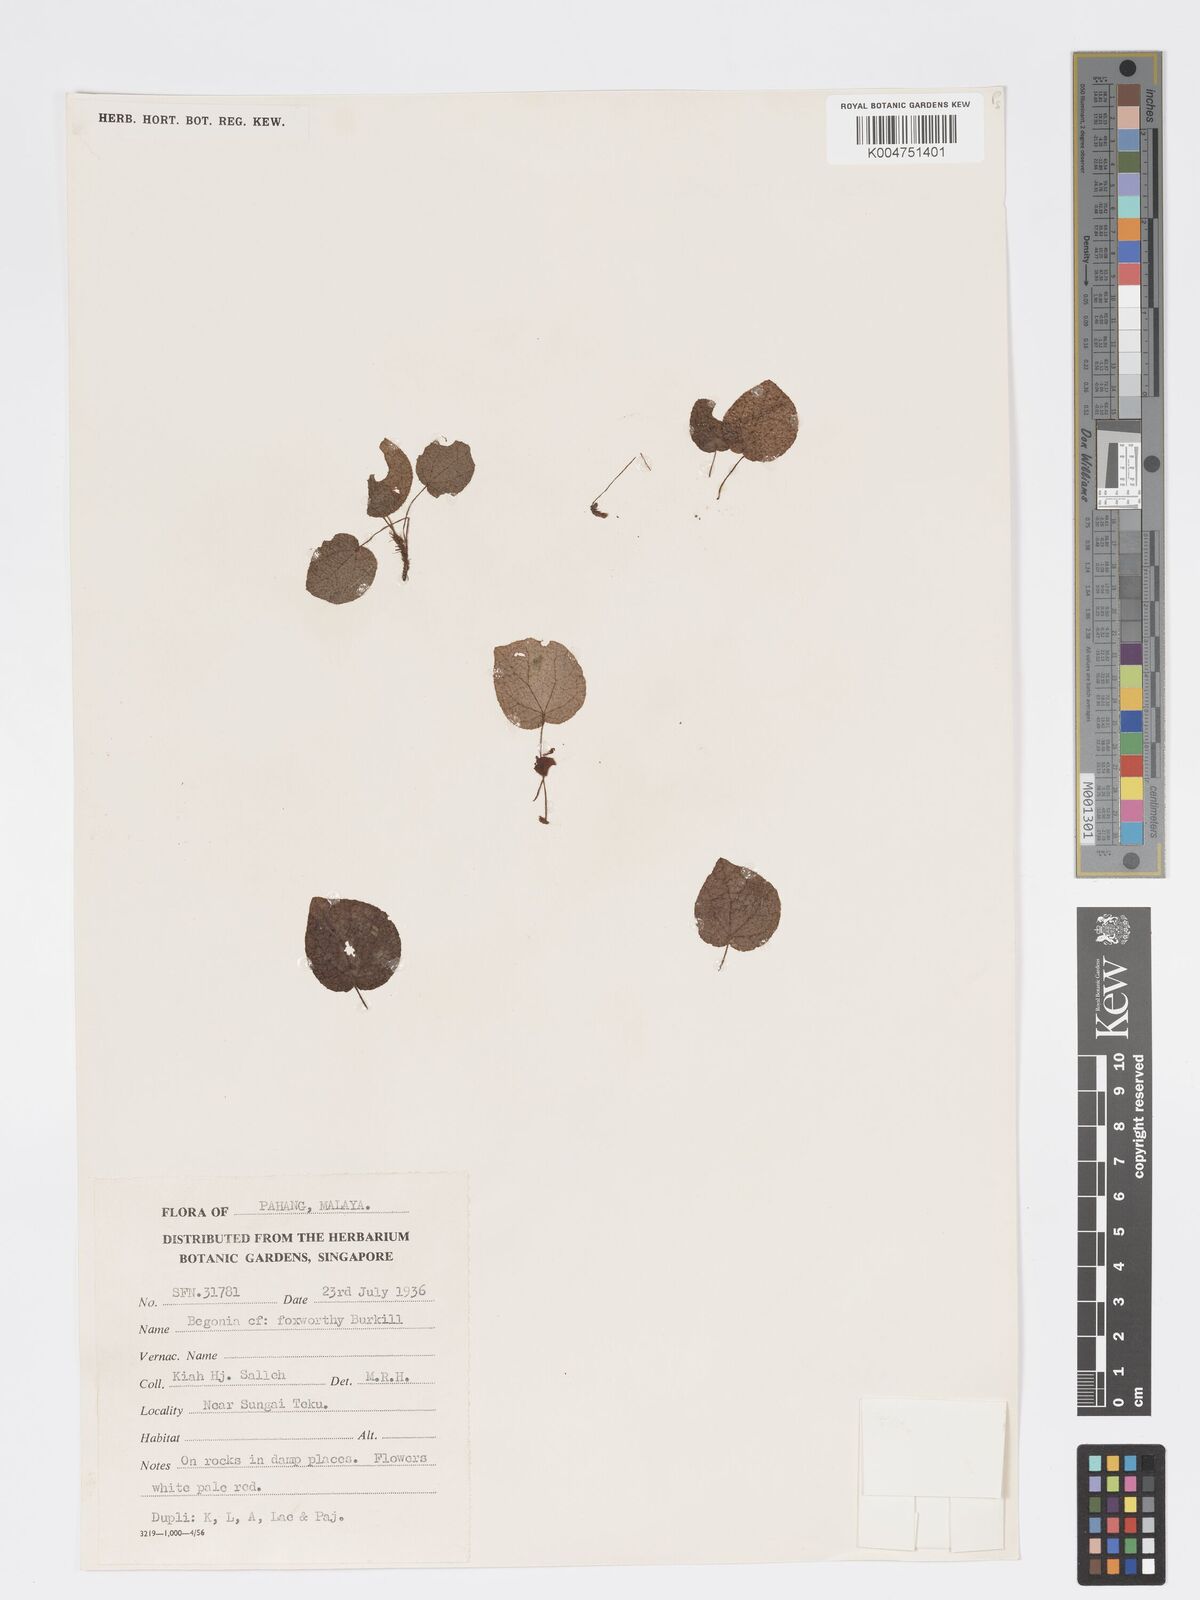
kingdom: Plantae
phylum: Tracheophyta
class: Magnoliopsida
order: Cucurbitales
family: Begoniaceae
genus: Begonia
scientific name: Begonia foxworthyi
